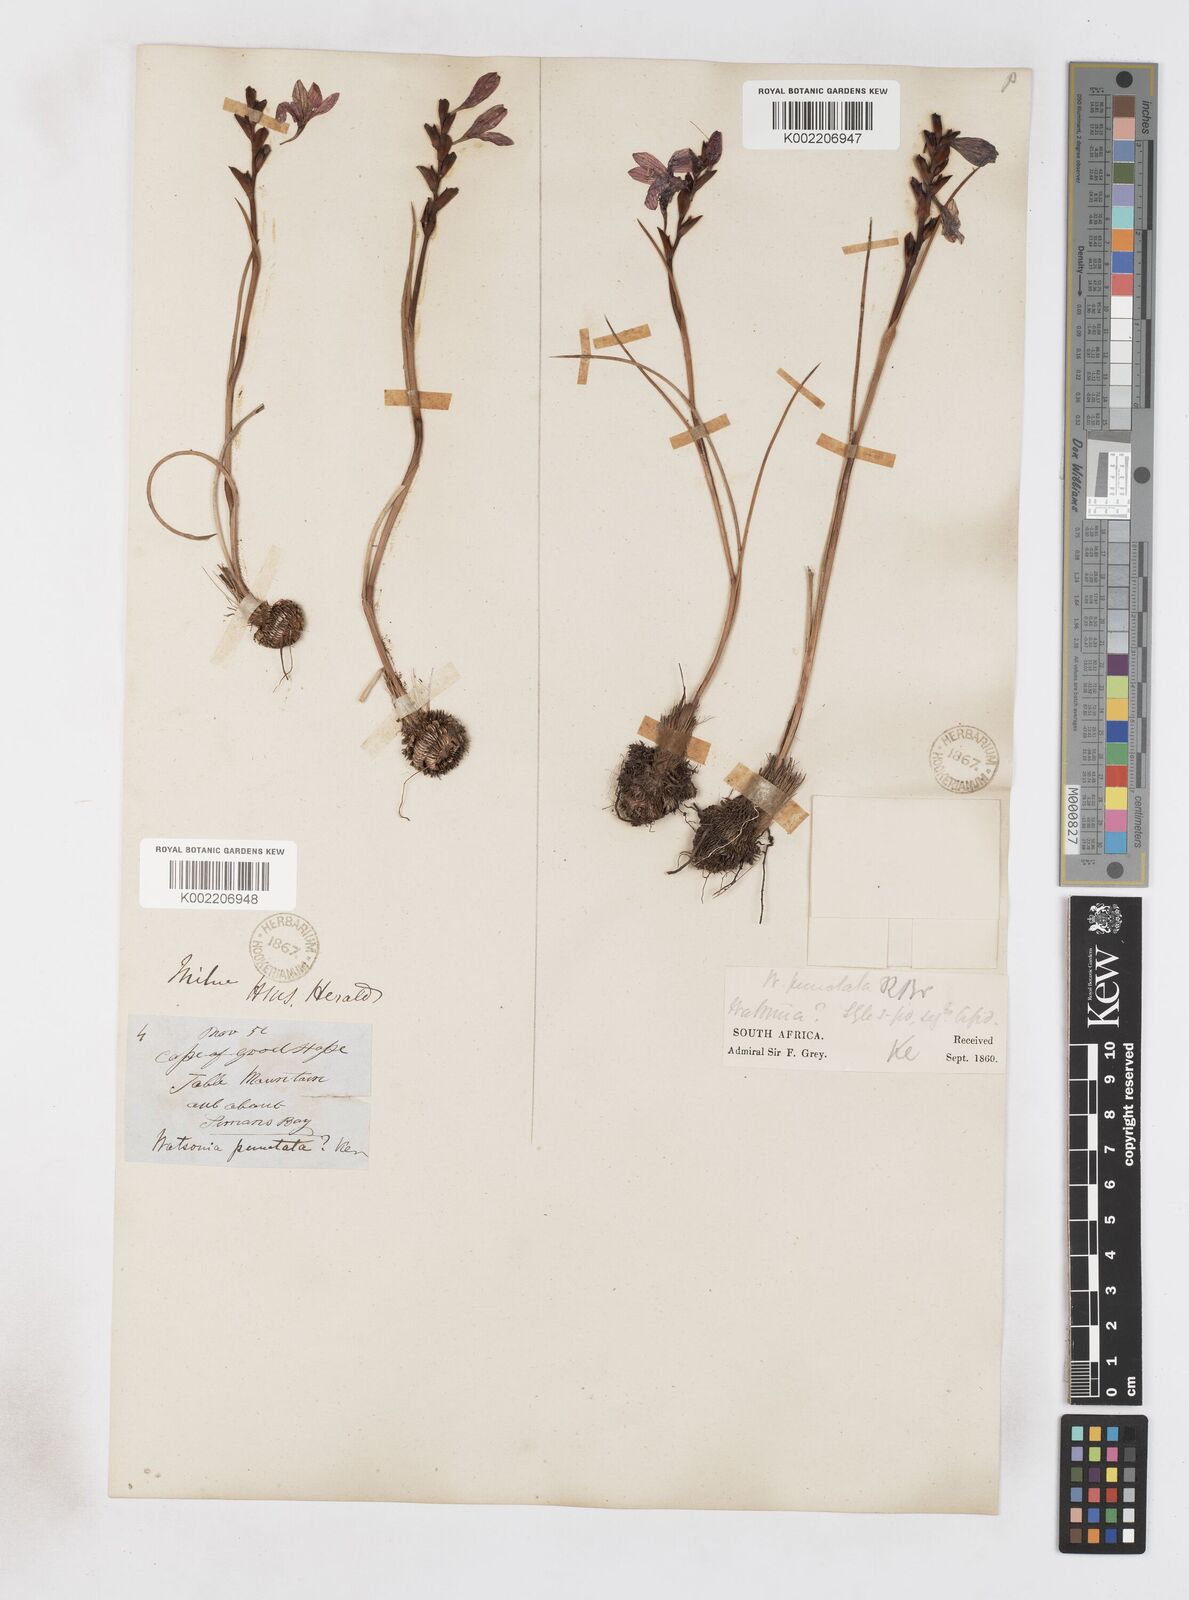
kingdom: Plantae
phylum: Tracheophyta
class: Liliopsida
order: Asparagales
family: Iridaceae
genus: Thereianthus
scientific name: Thereianthus spicatus
